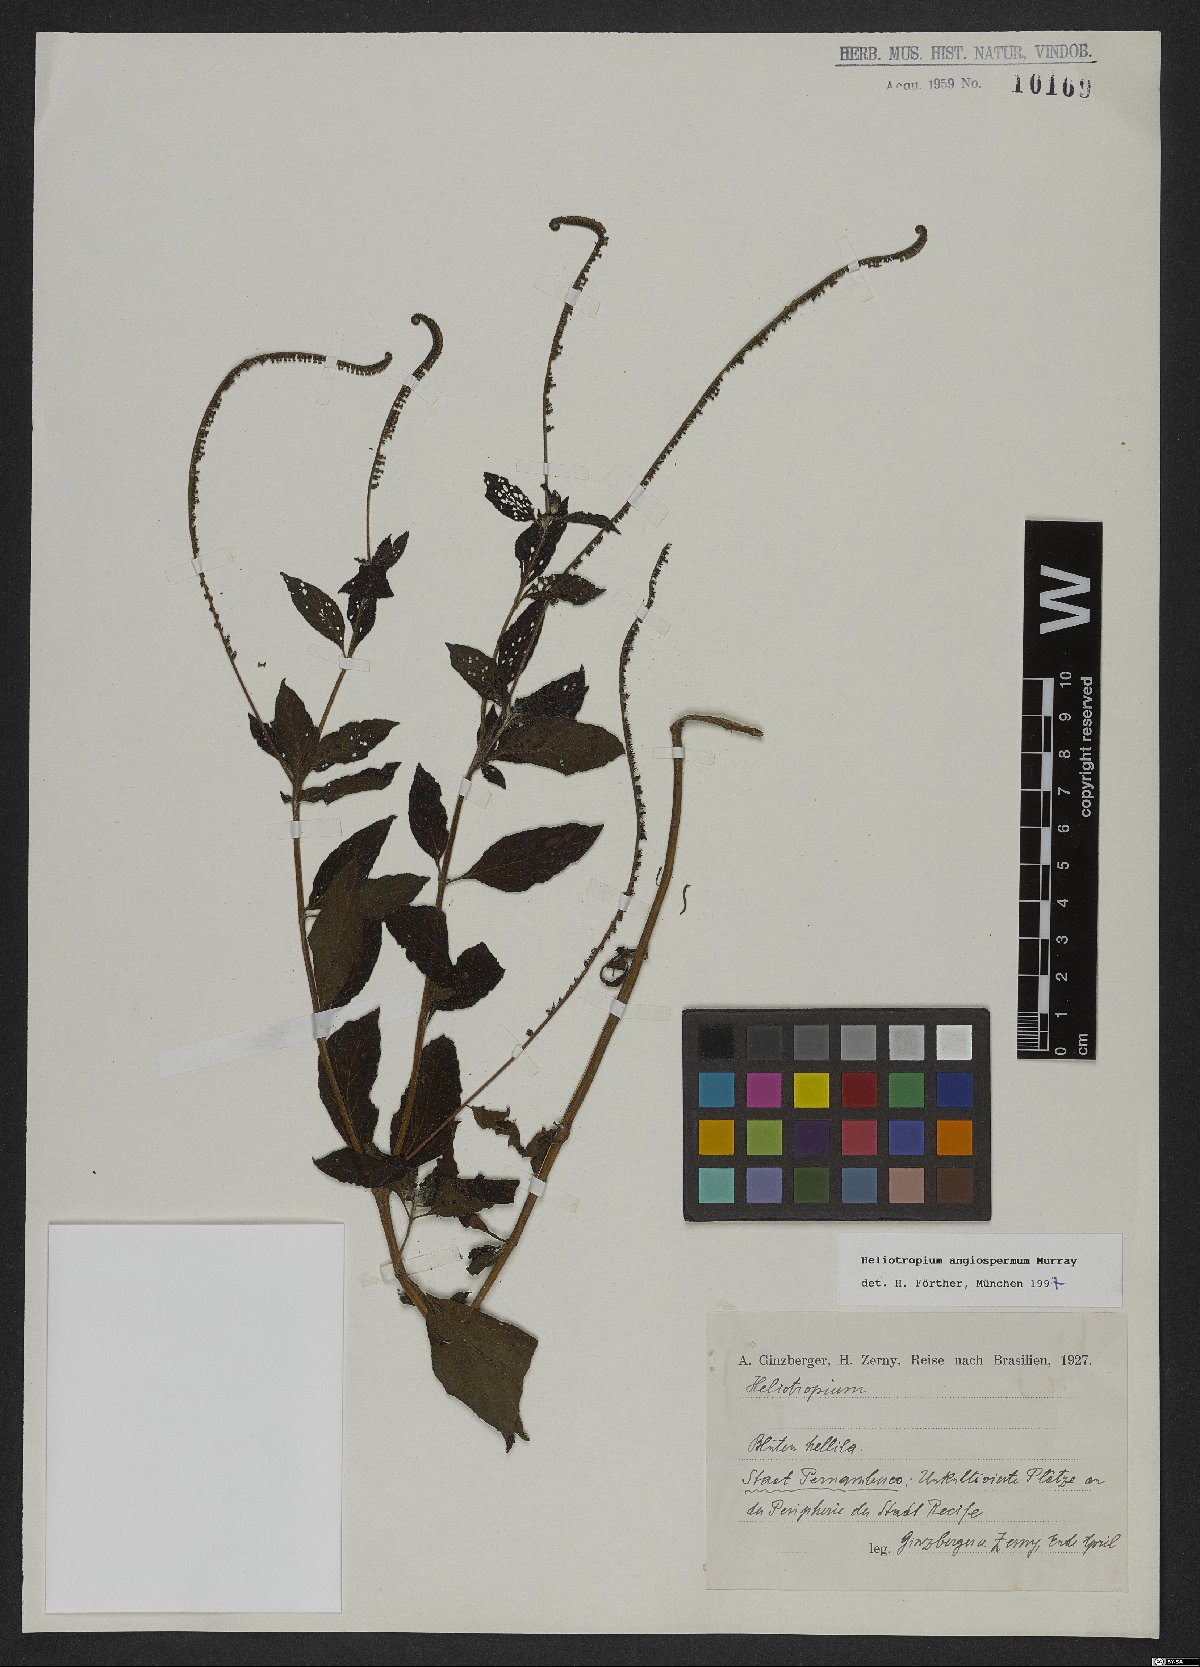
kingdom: Plantae
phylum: Tracheophyta
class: Magnoliopsida
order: Boraginales
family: Heliotropiaceae
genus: Heliotropium
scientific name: Heliotropium angiospermum
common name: Eye bright
